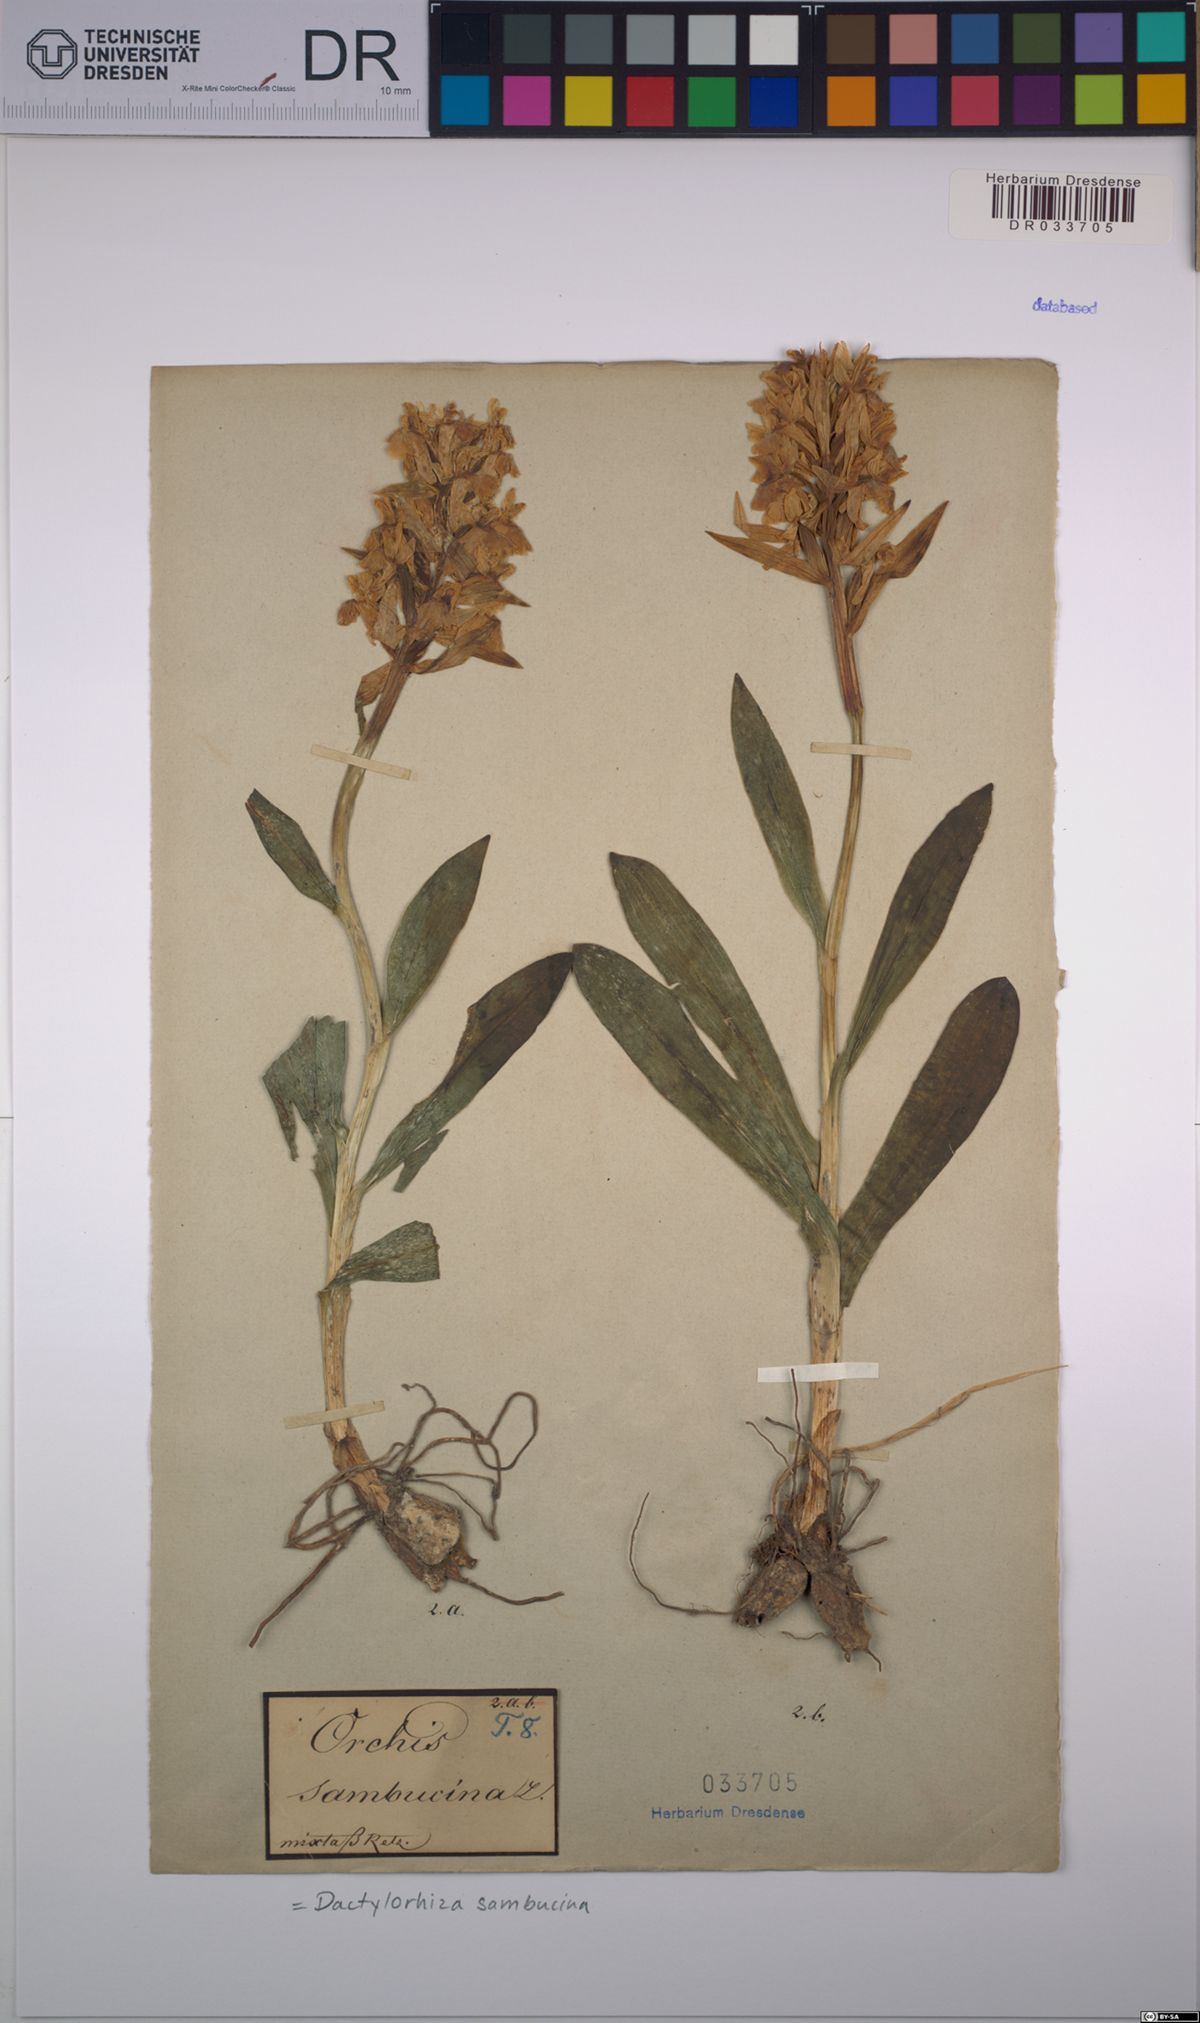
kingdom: Plantae
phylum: Tracheophyta
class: Liliopsida
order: Asparagales
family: Orchidaceae
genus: Dactylorhiza
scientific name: Dactylorhiza sambucina
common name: Elder-flowered orchid
